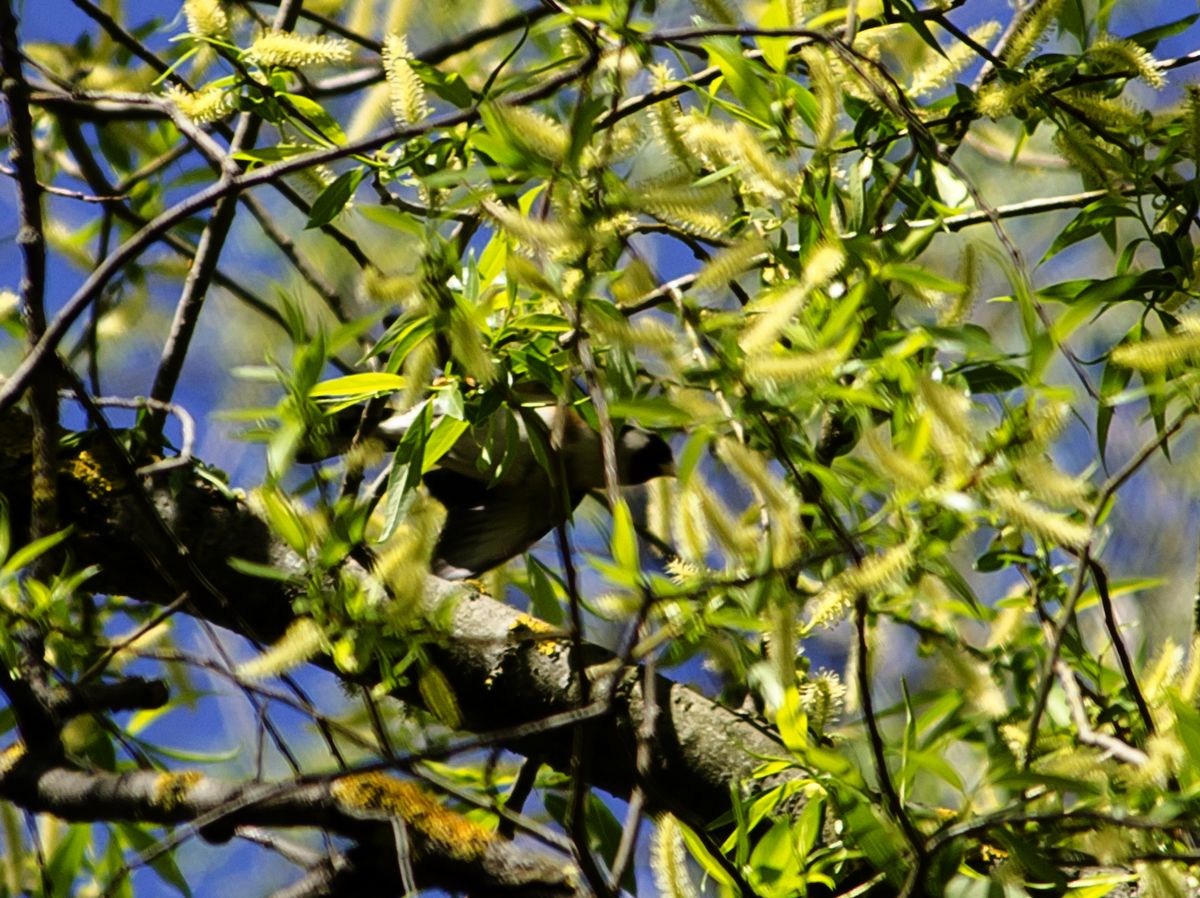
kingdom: Animalia
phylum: Chordata
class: Aves
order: Passeriformes
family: Fringillidae
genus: Carduelis
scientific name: Carduelis carduelis
